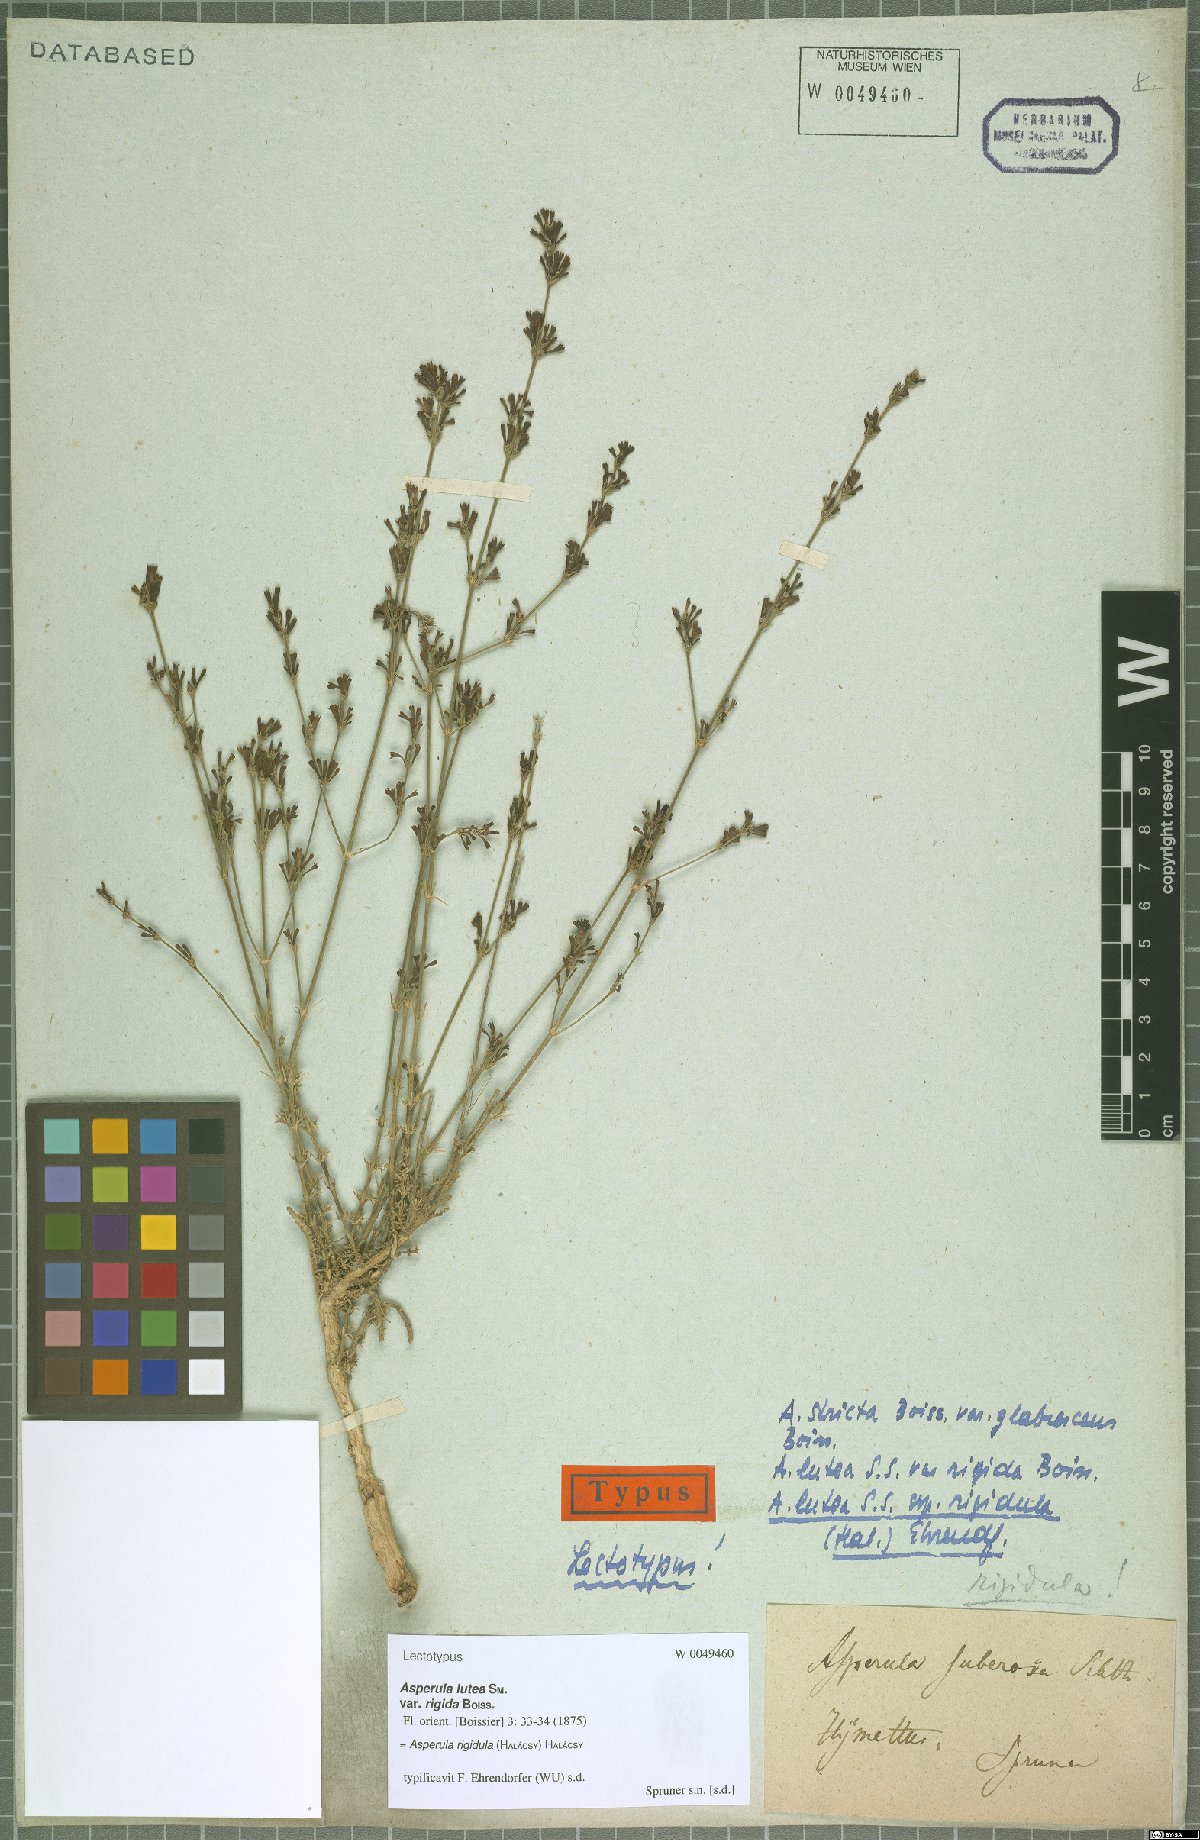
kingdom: Plantae
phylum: Tracheophyta
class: Magnoliopsida
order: Gentianales
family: Rubiaceae
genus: Cynanchica
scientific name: Cynanchica rigidula
